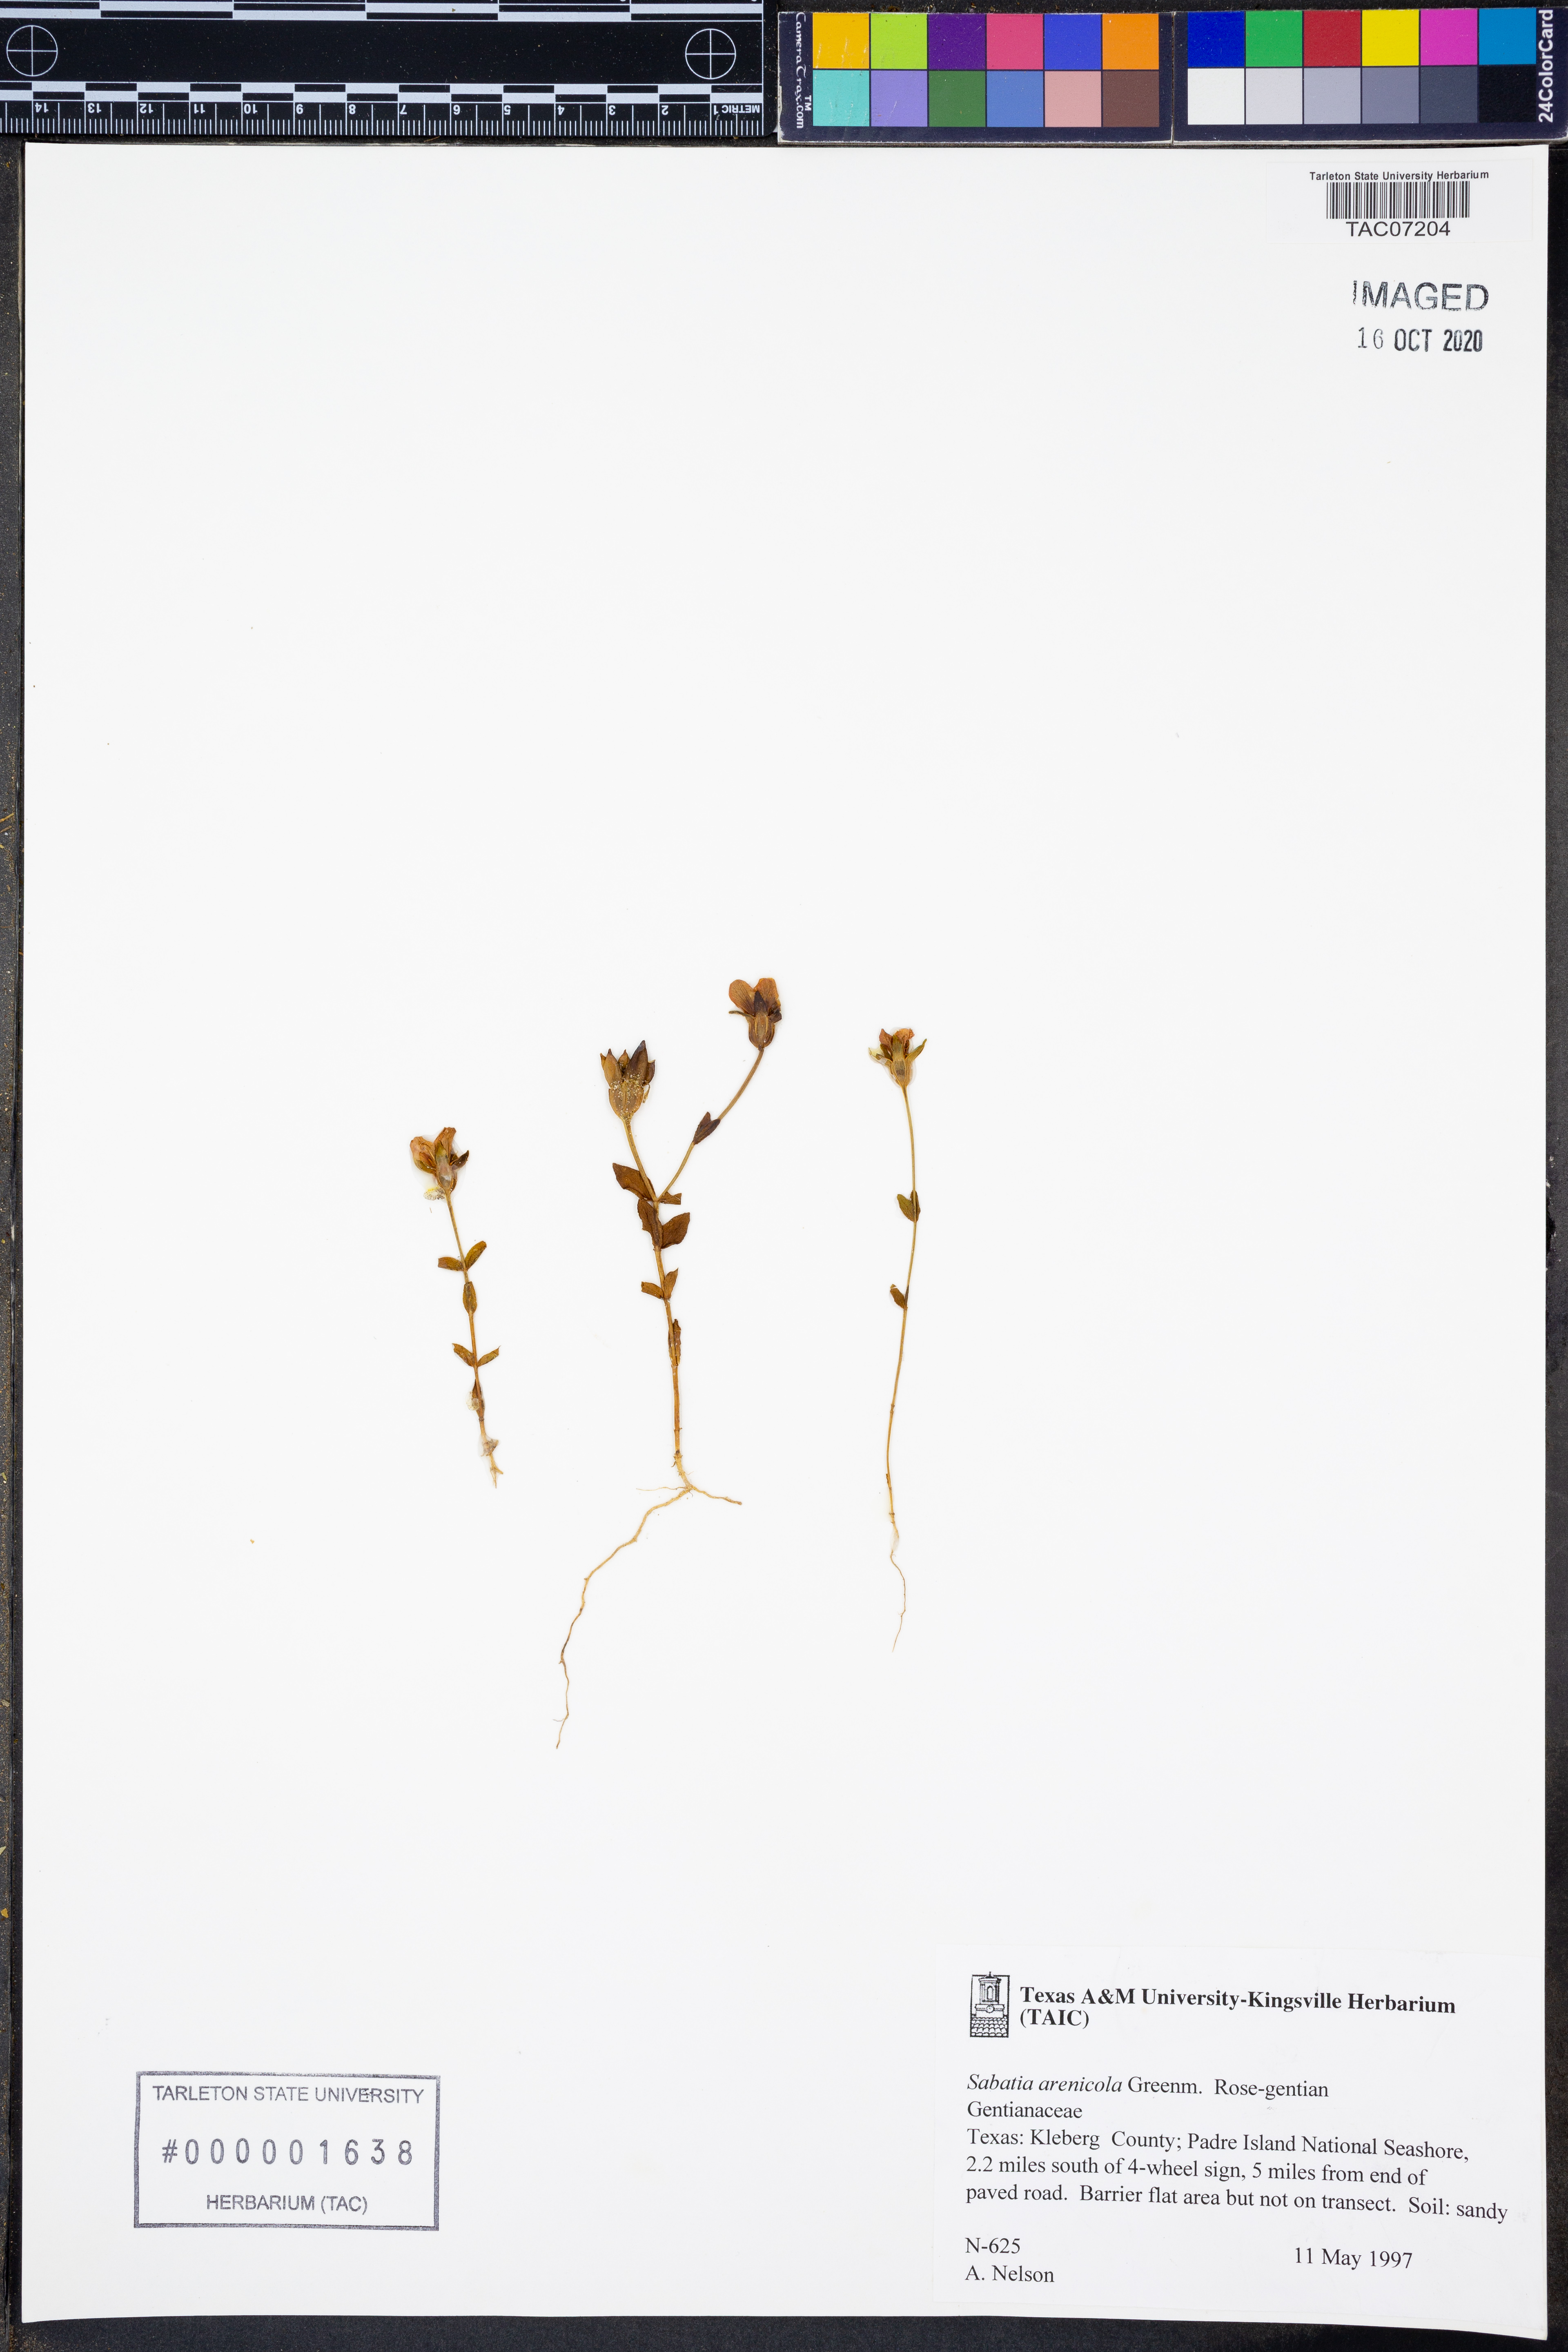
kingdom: Plantae
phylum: Tracheophyta
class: Magnoliopsida
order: Gentianales
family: Gentianaceae
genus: Sabatia
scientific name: Sabatia arenicola
